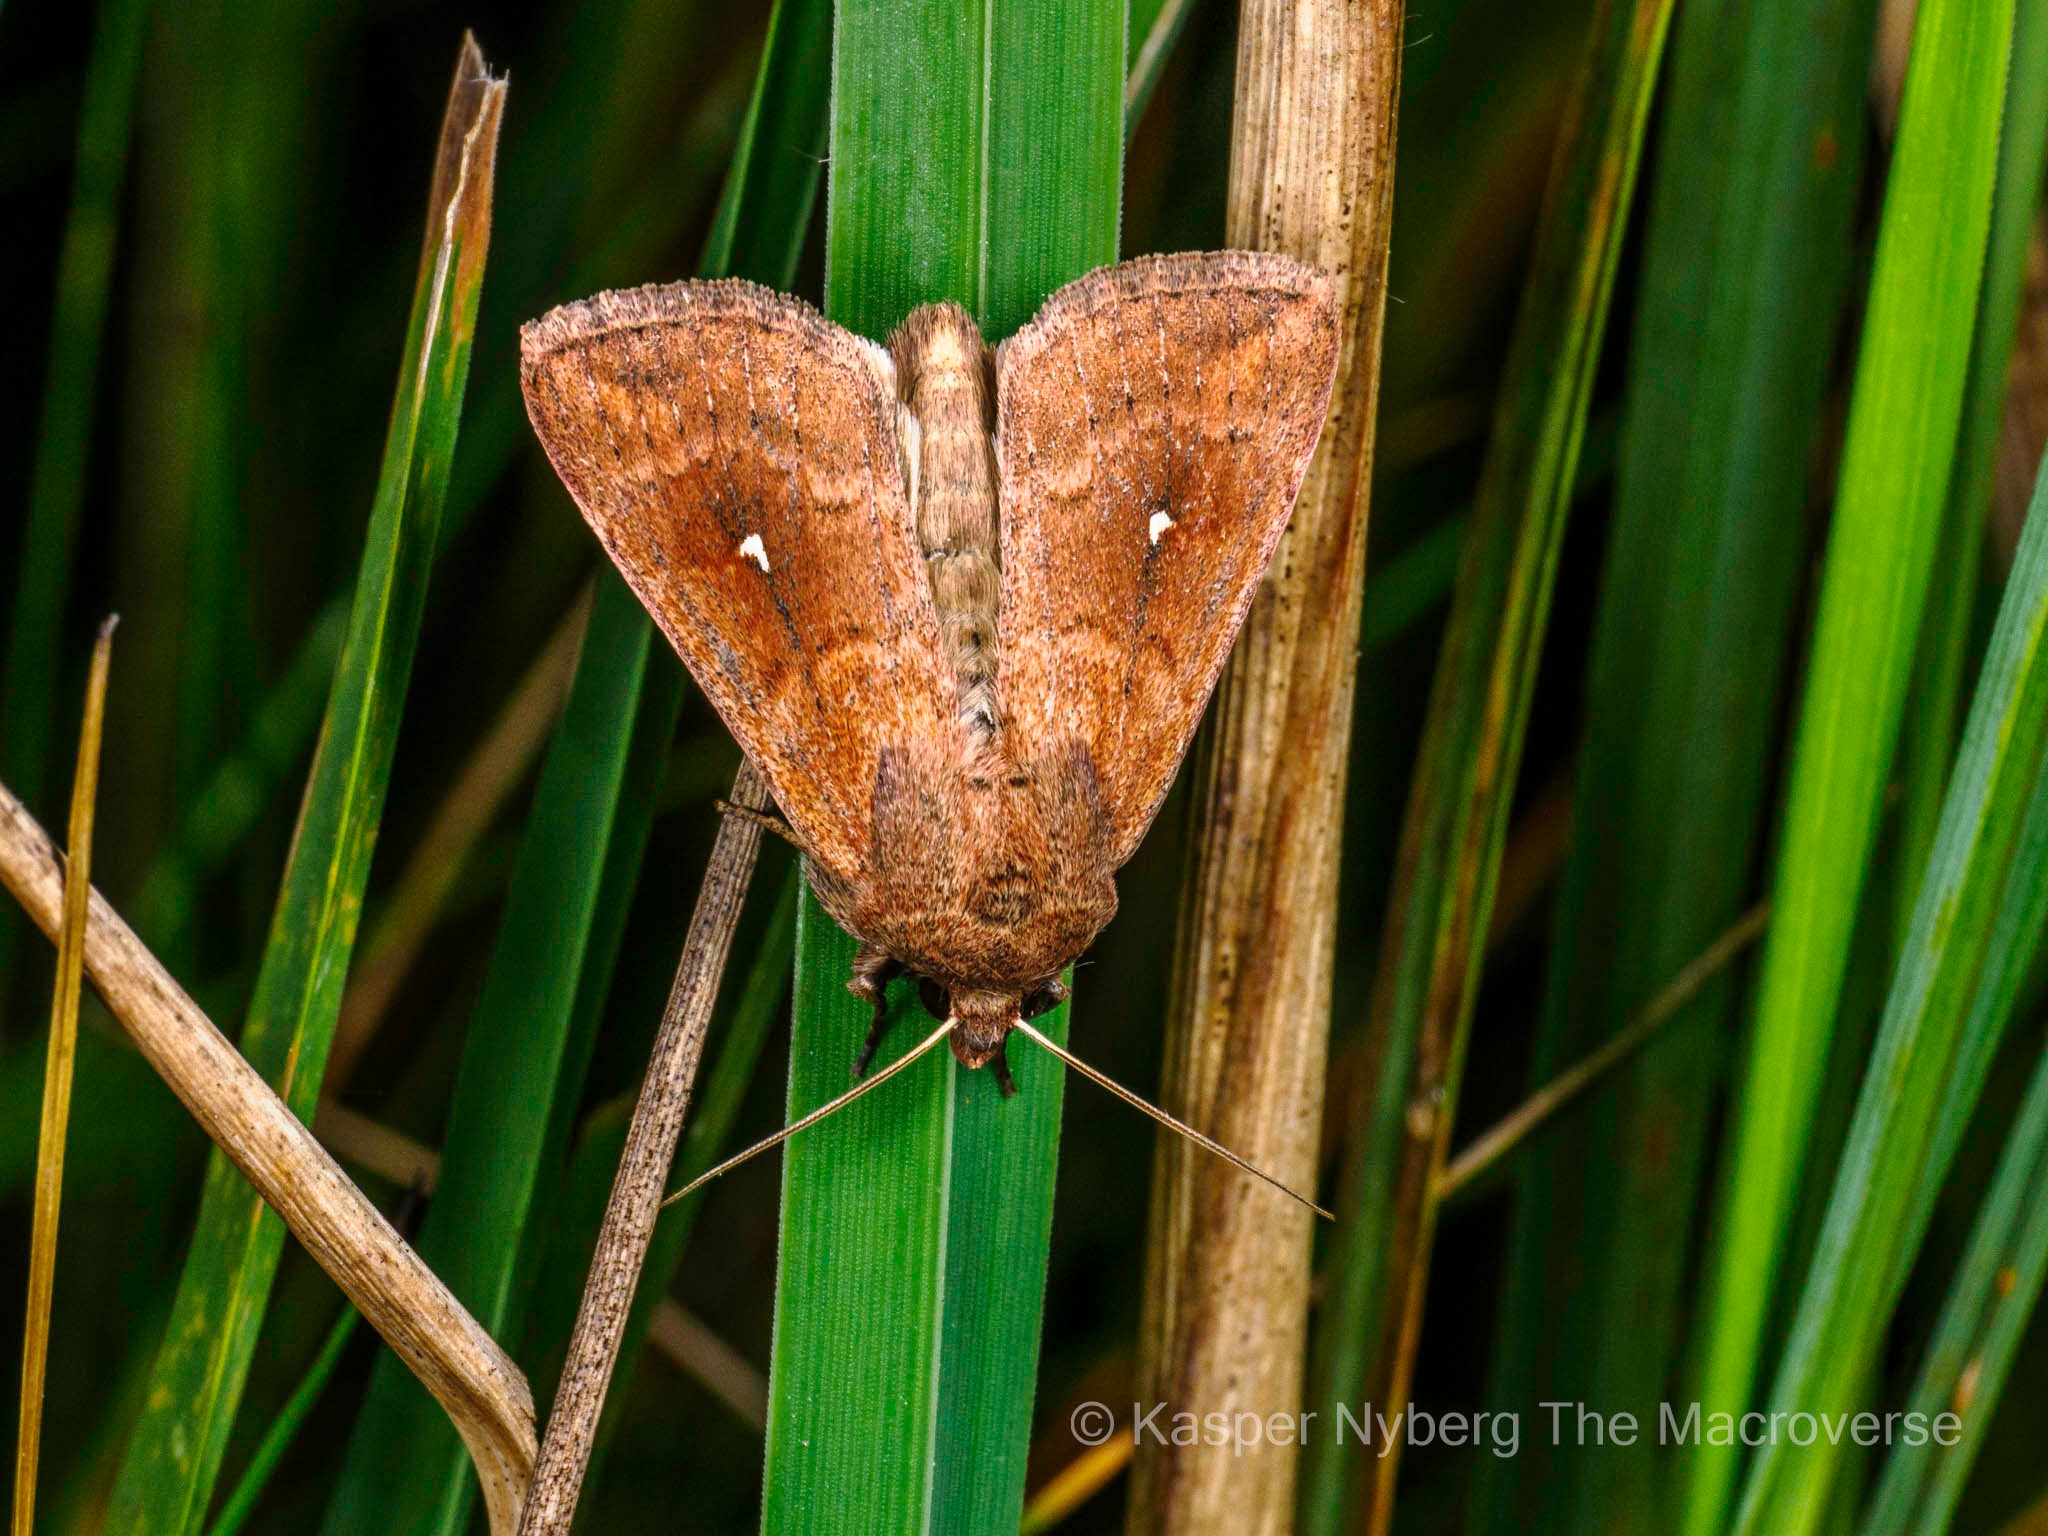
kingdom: Animalia
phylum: Arthropoda
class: Insecta
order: Lepidoptera
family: Noctuidae
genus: Mythimna
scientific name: Mythimna albipuncta
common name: Hvid-punkt græsugle
